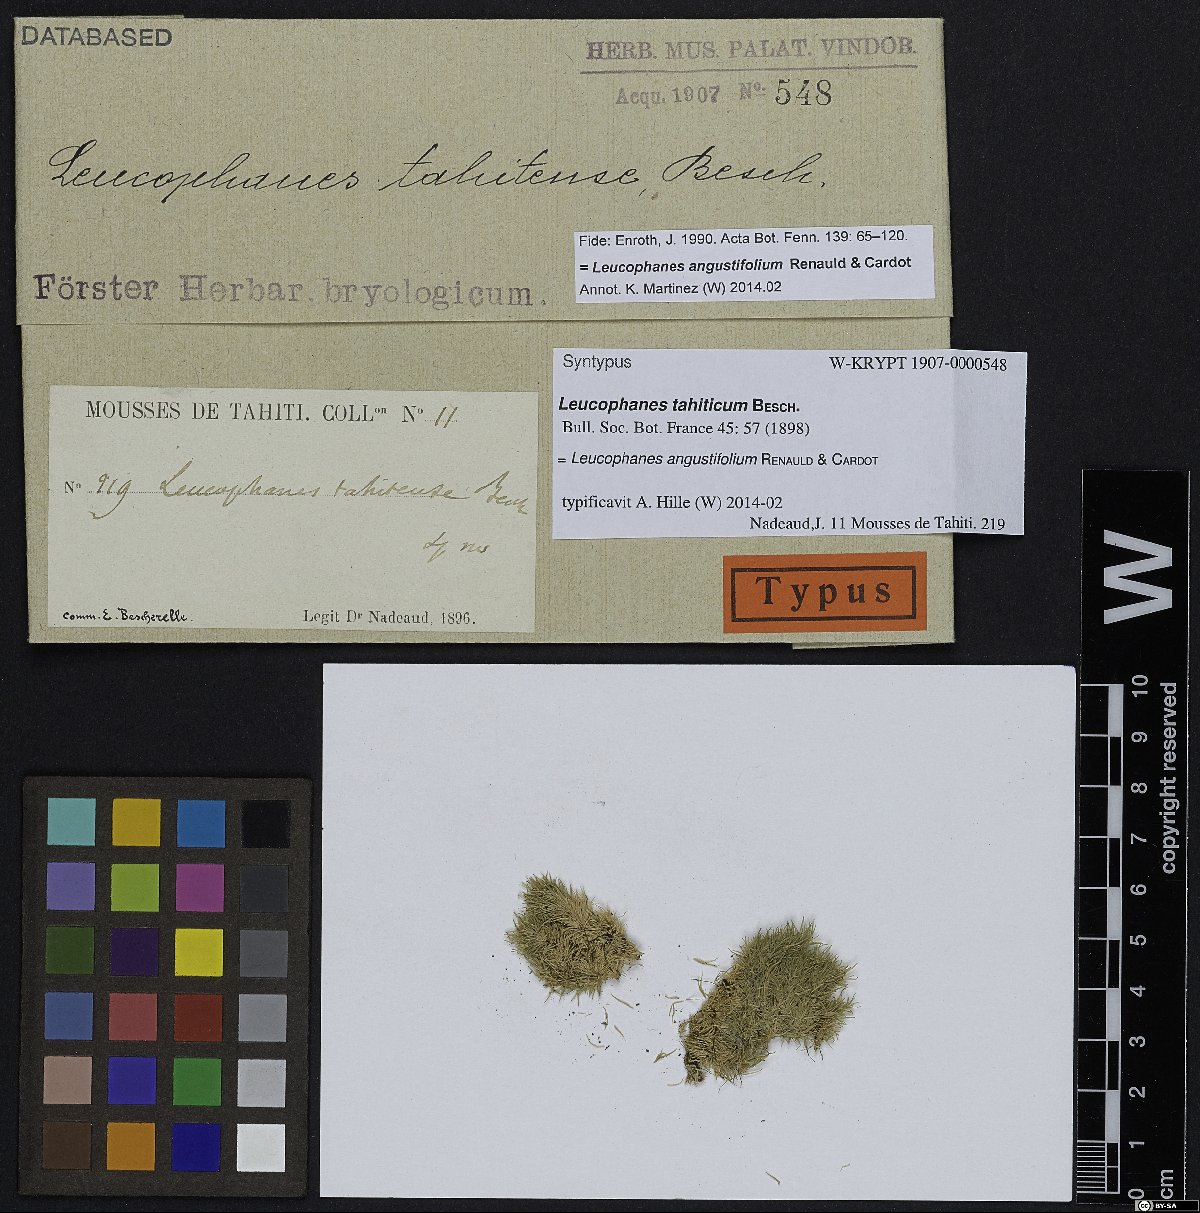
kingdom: Plantae
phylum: Bryophyta
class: Bryopsida
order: Dicranales
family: Calymperaceae
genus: Leucophanes
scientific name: Leucophanes angustifolium
